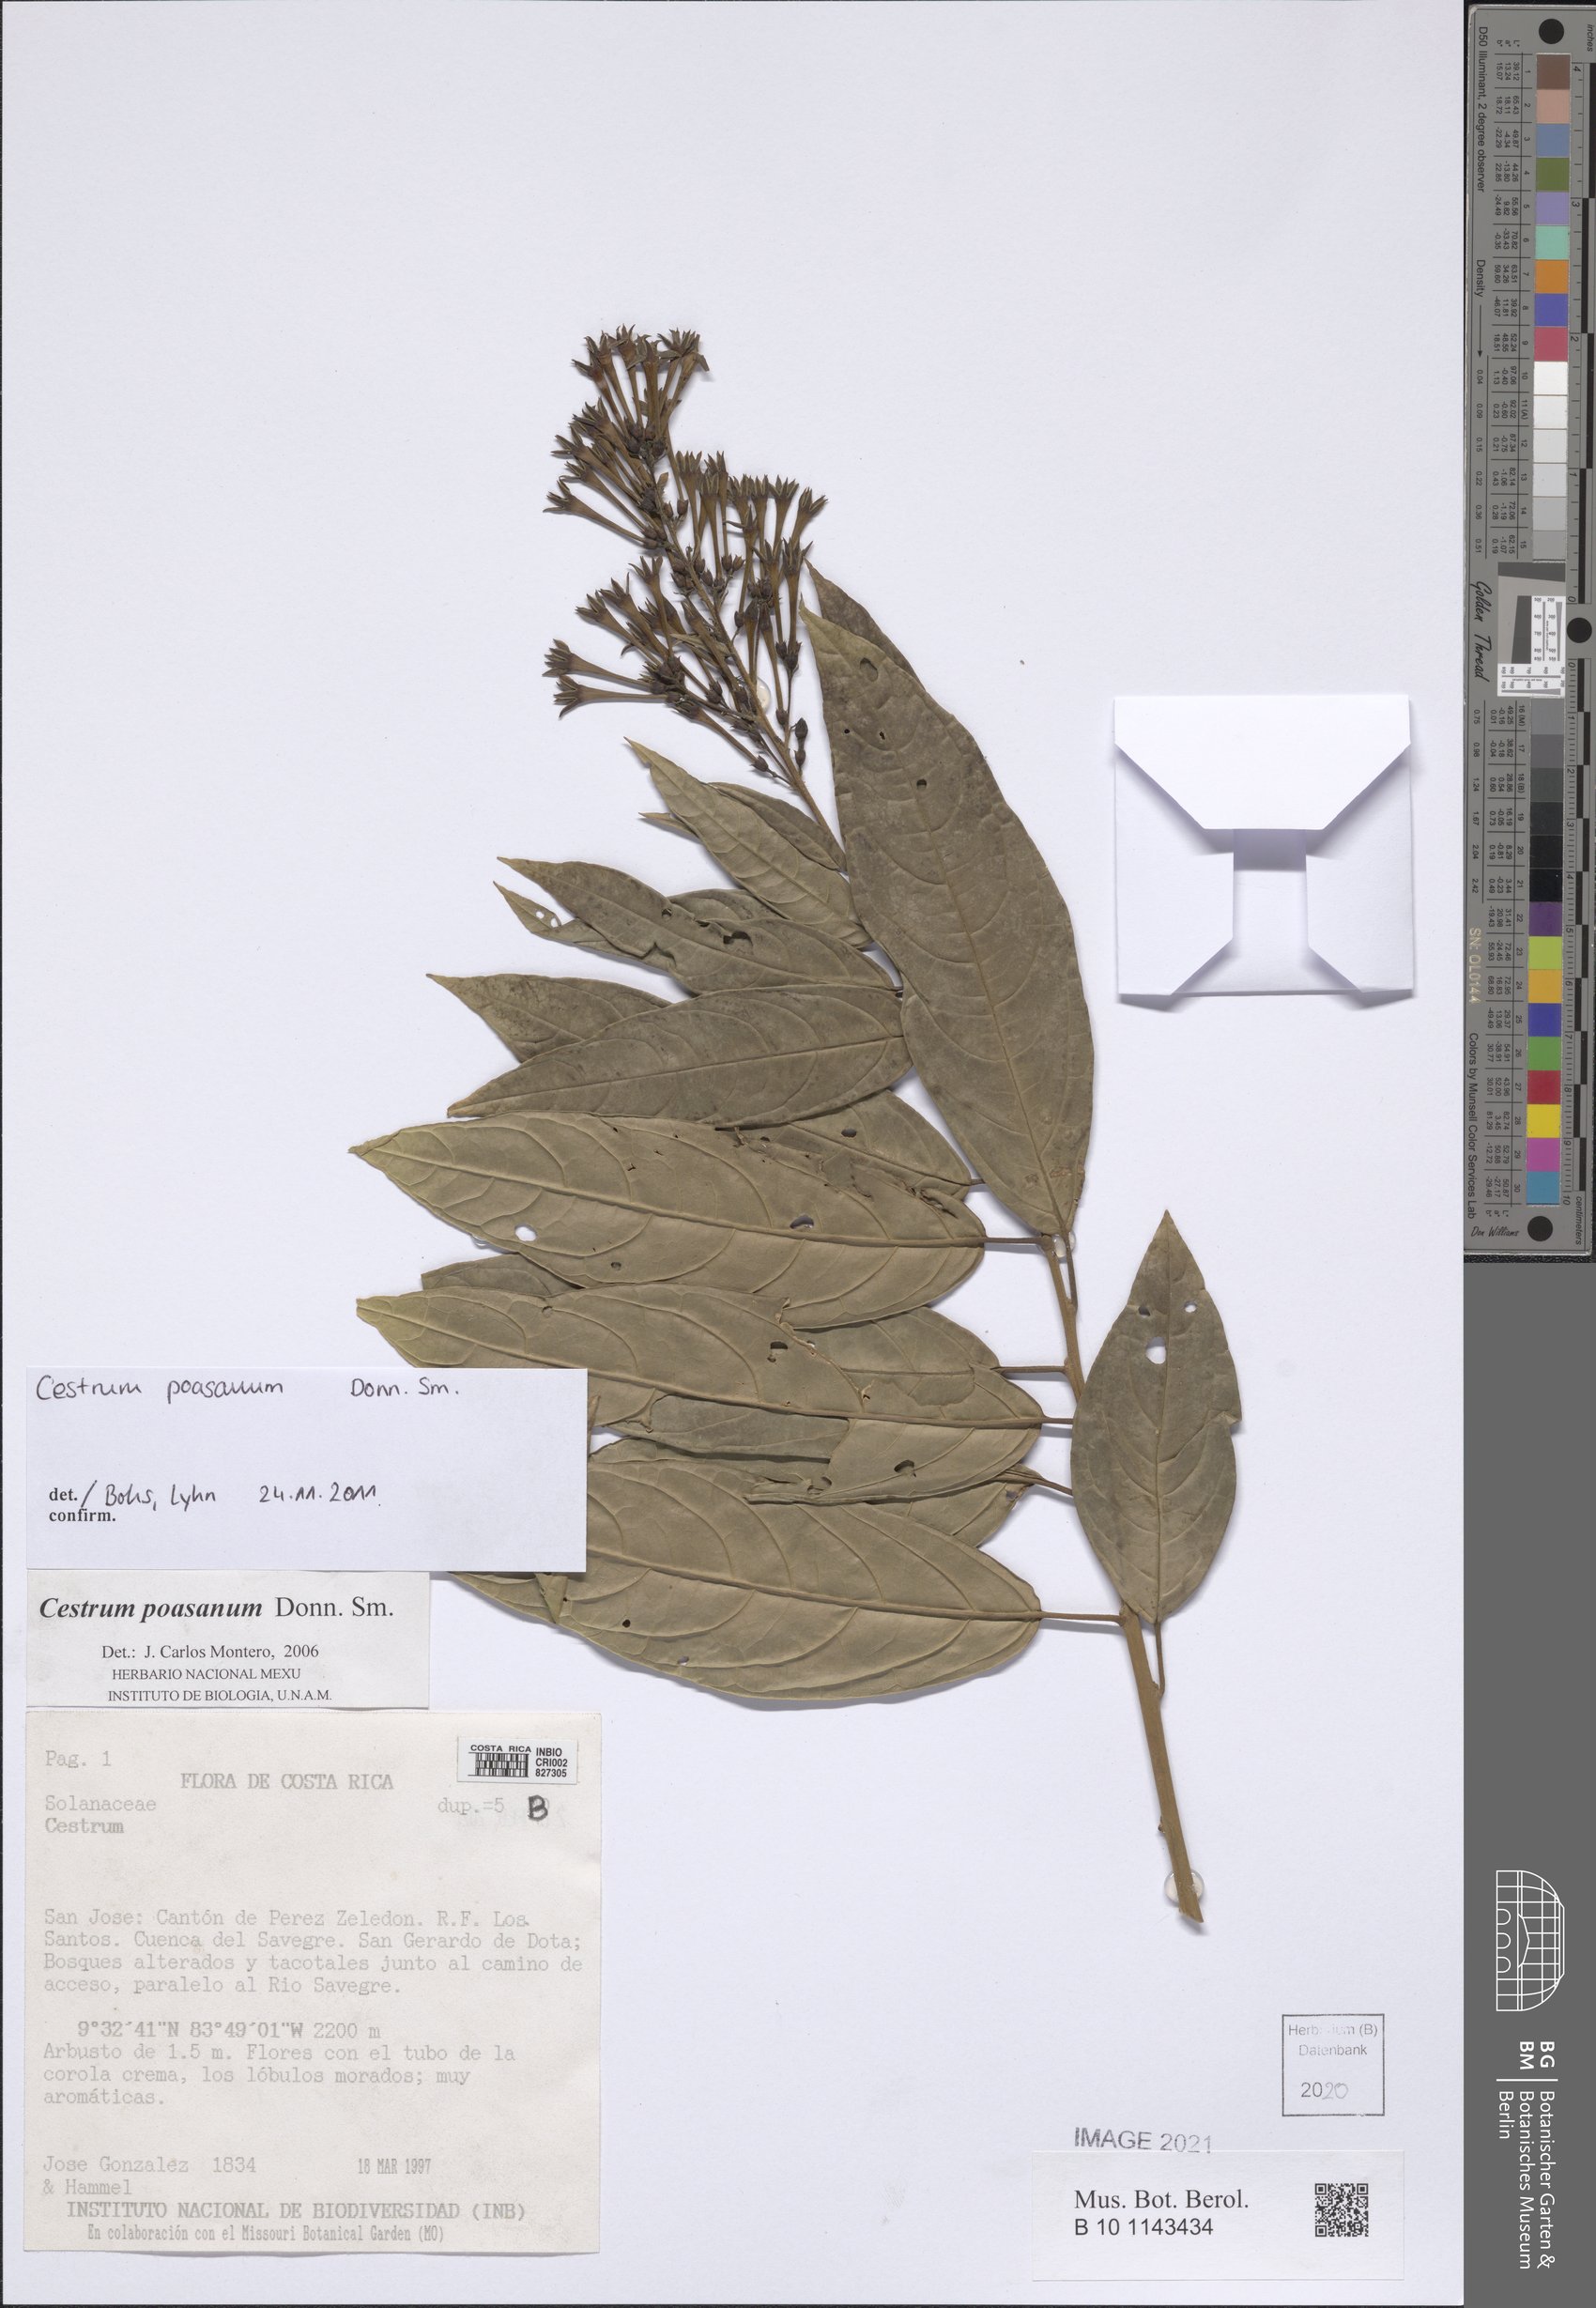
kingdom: Plantae
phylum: Tracheophyta
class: Magnoliopsida
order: Solanales
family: Solanaceae
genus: Cestrum
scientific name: Cestrum poasanum
